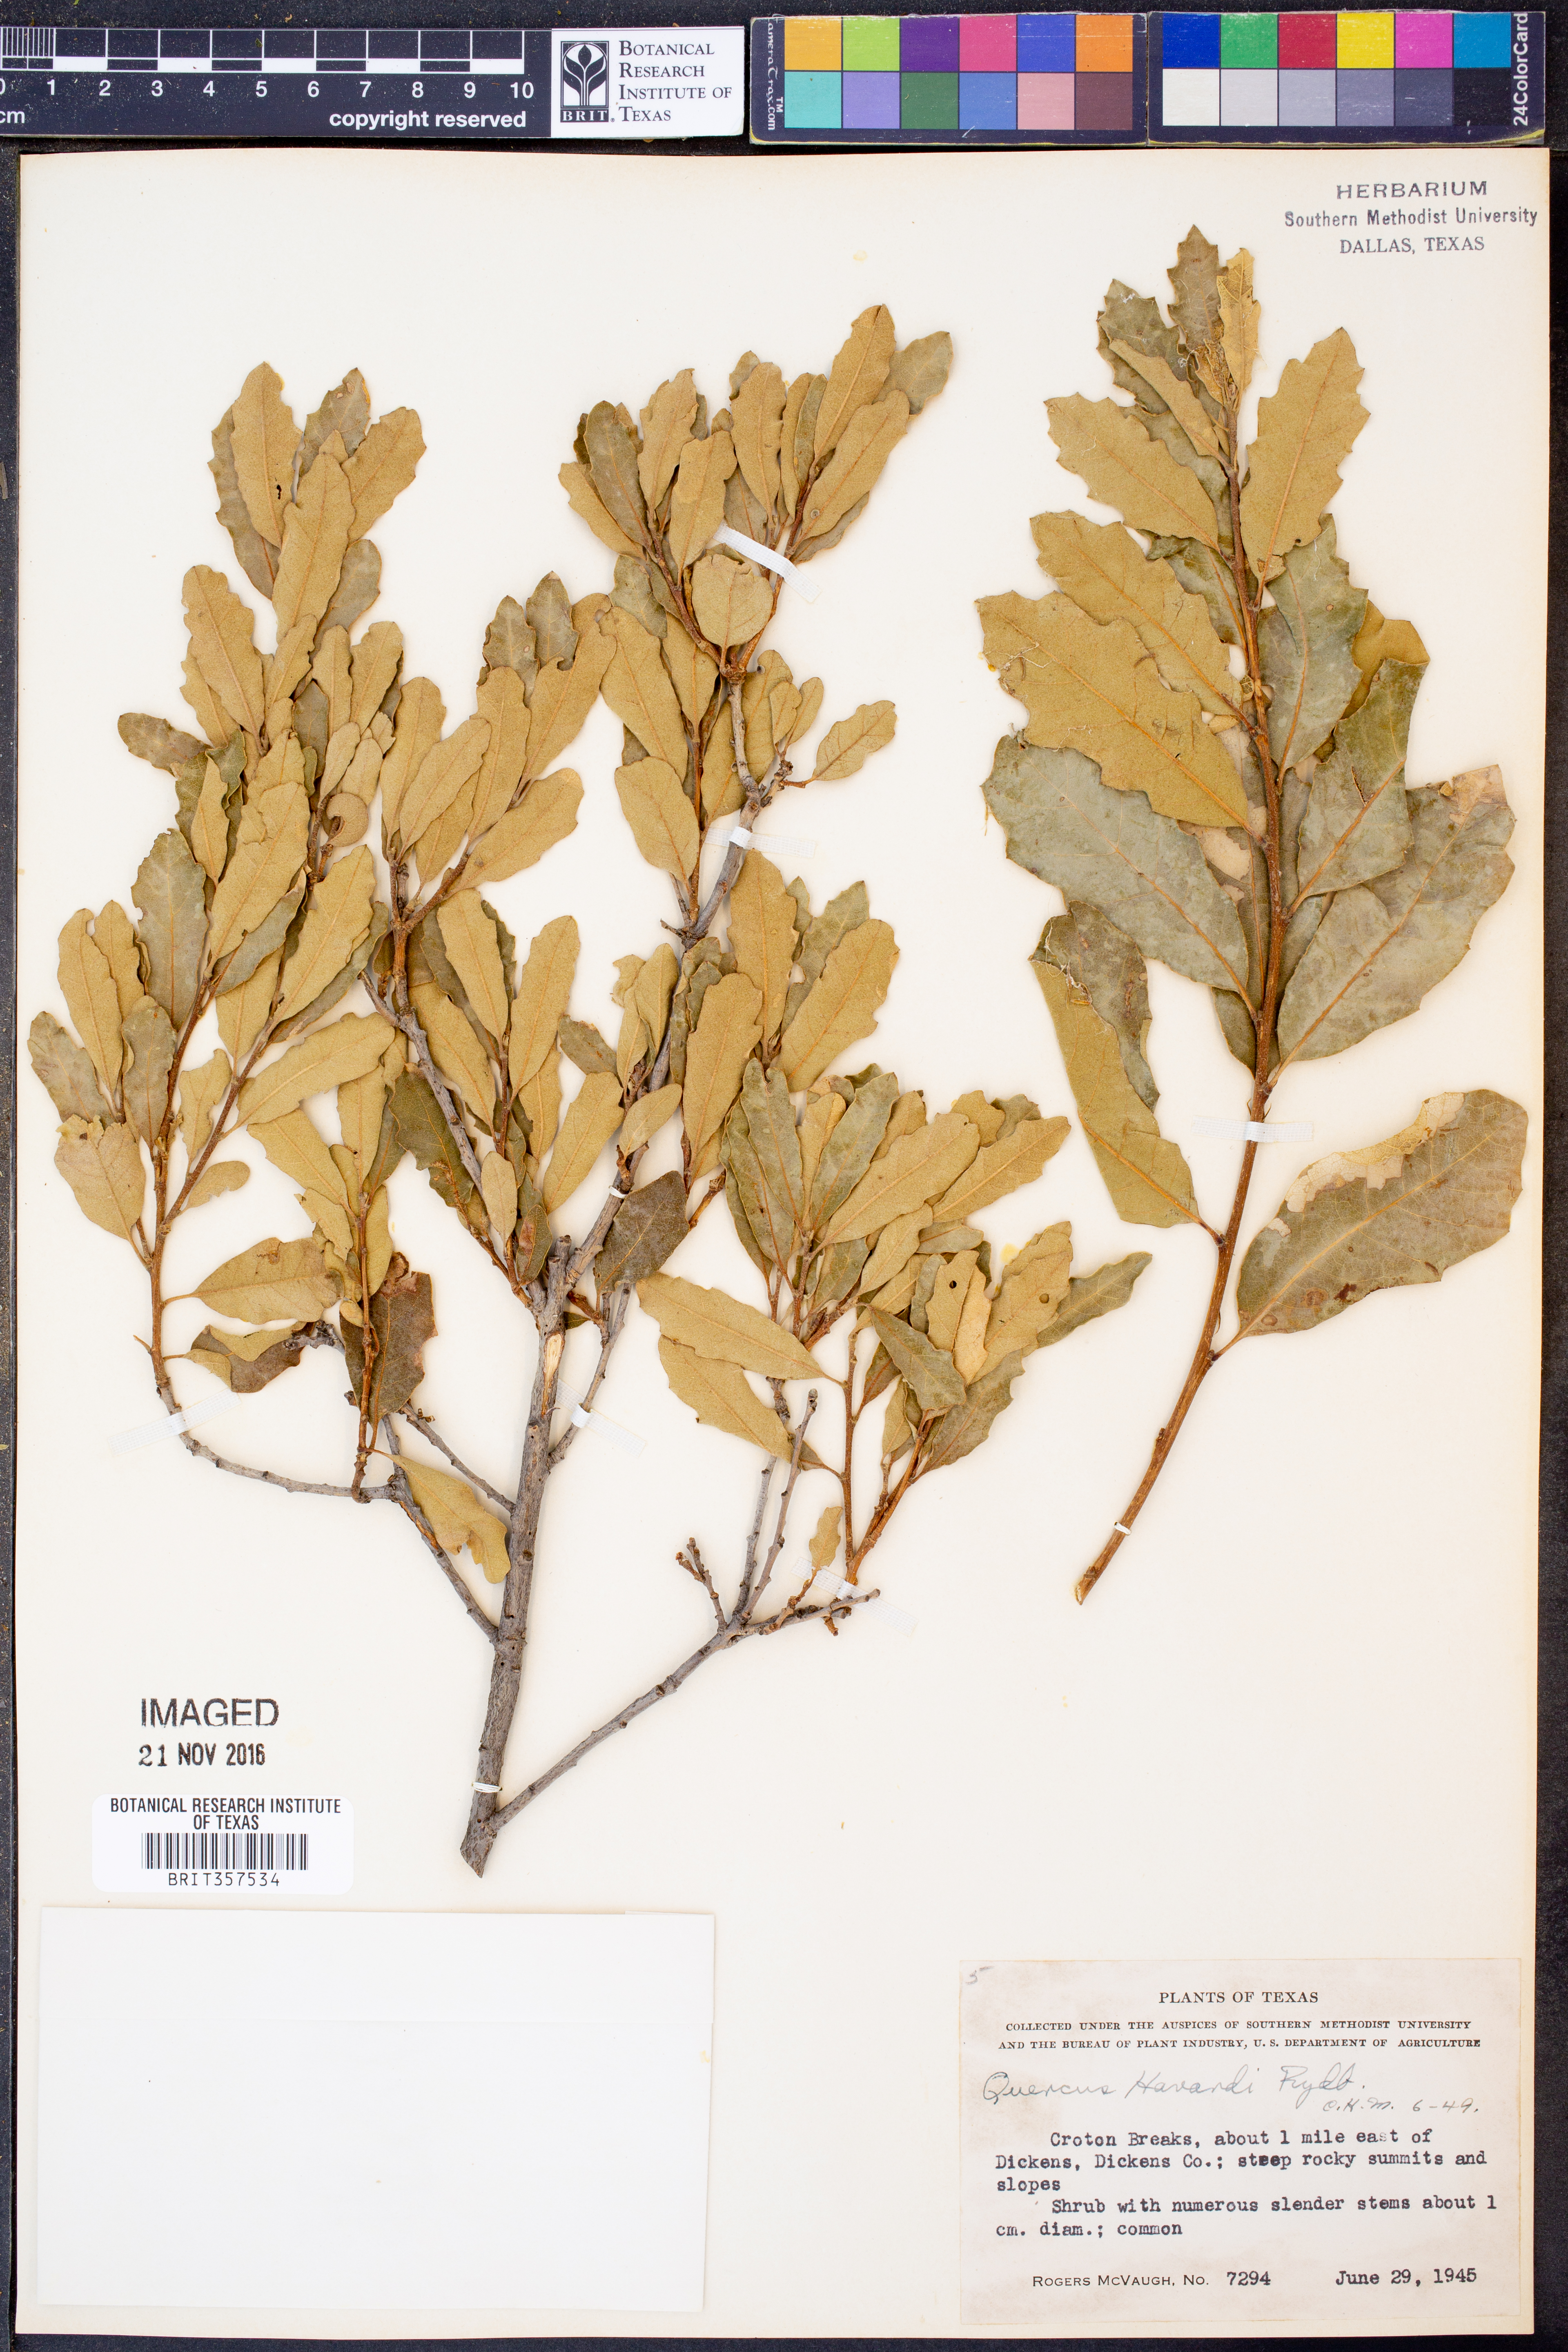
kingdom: Plantae
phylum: Tracheophyta
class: Magnoliopsida
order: Fagales
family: Fagaceae
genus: Quercus
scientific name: Quercus havardii
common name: Shinnery oak
